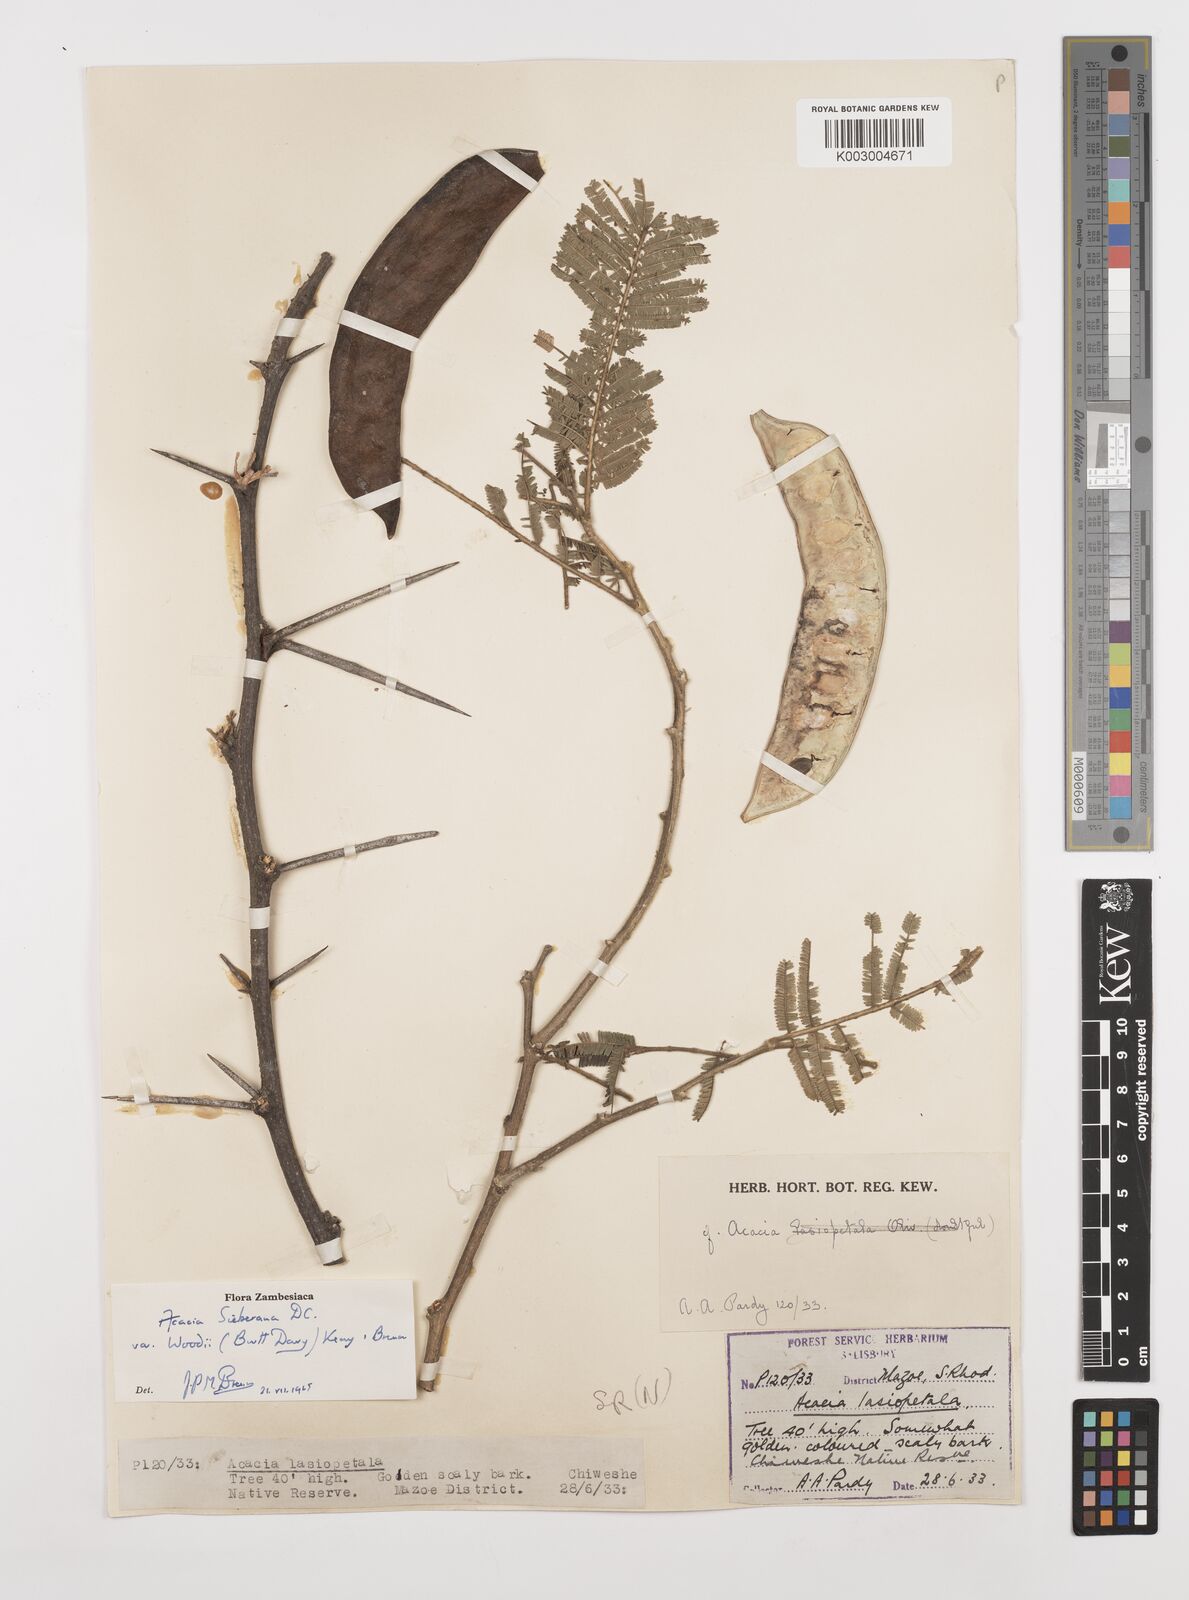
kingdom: Plantae
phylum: Tracheophyta
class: Magnoliopsida
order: Fabales
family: Fabaceae
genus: Vachellia
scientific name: Vachellia sieberiana
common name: Flat-topped thorn
